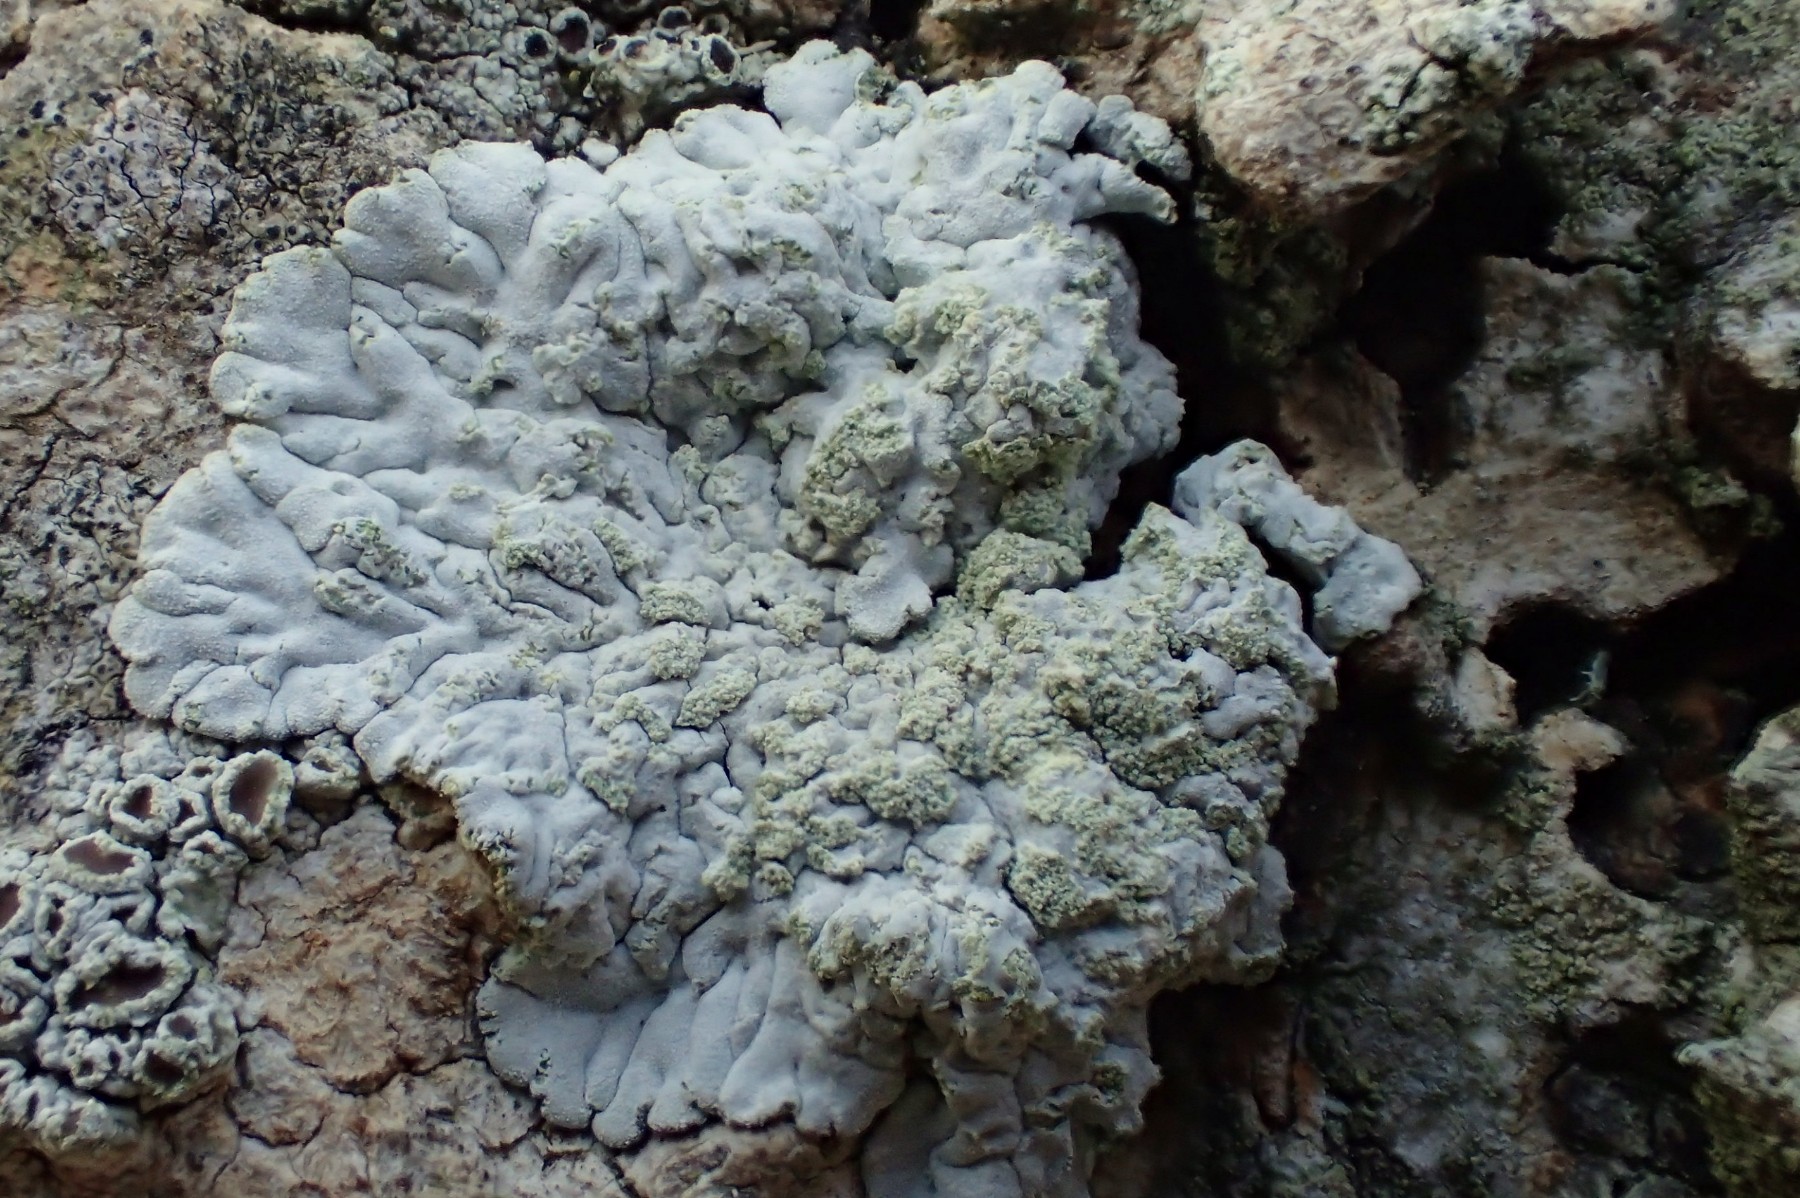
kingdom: Fungi
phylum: Ascomycota
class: Lecanoromycetes
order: Caliciales
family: Caliciaceae
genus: Diploicia
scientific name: Diploicia canescens
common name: grå støvrosetlav
